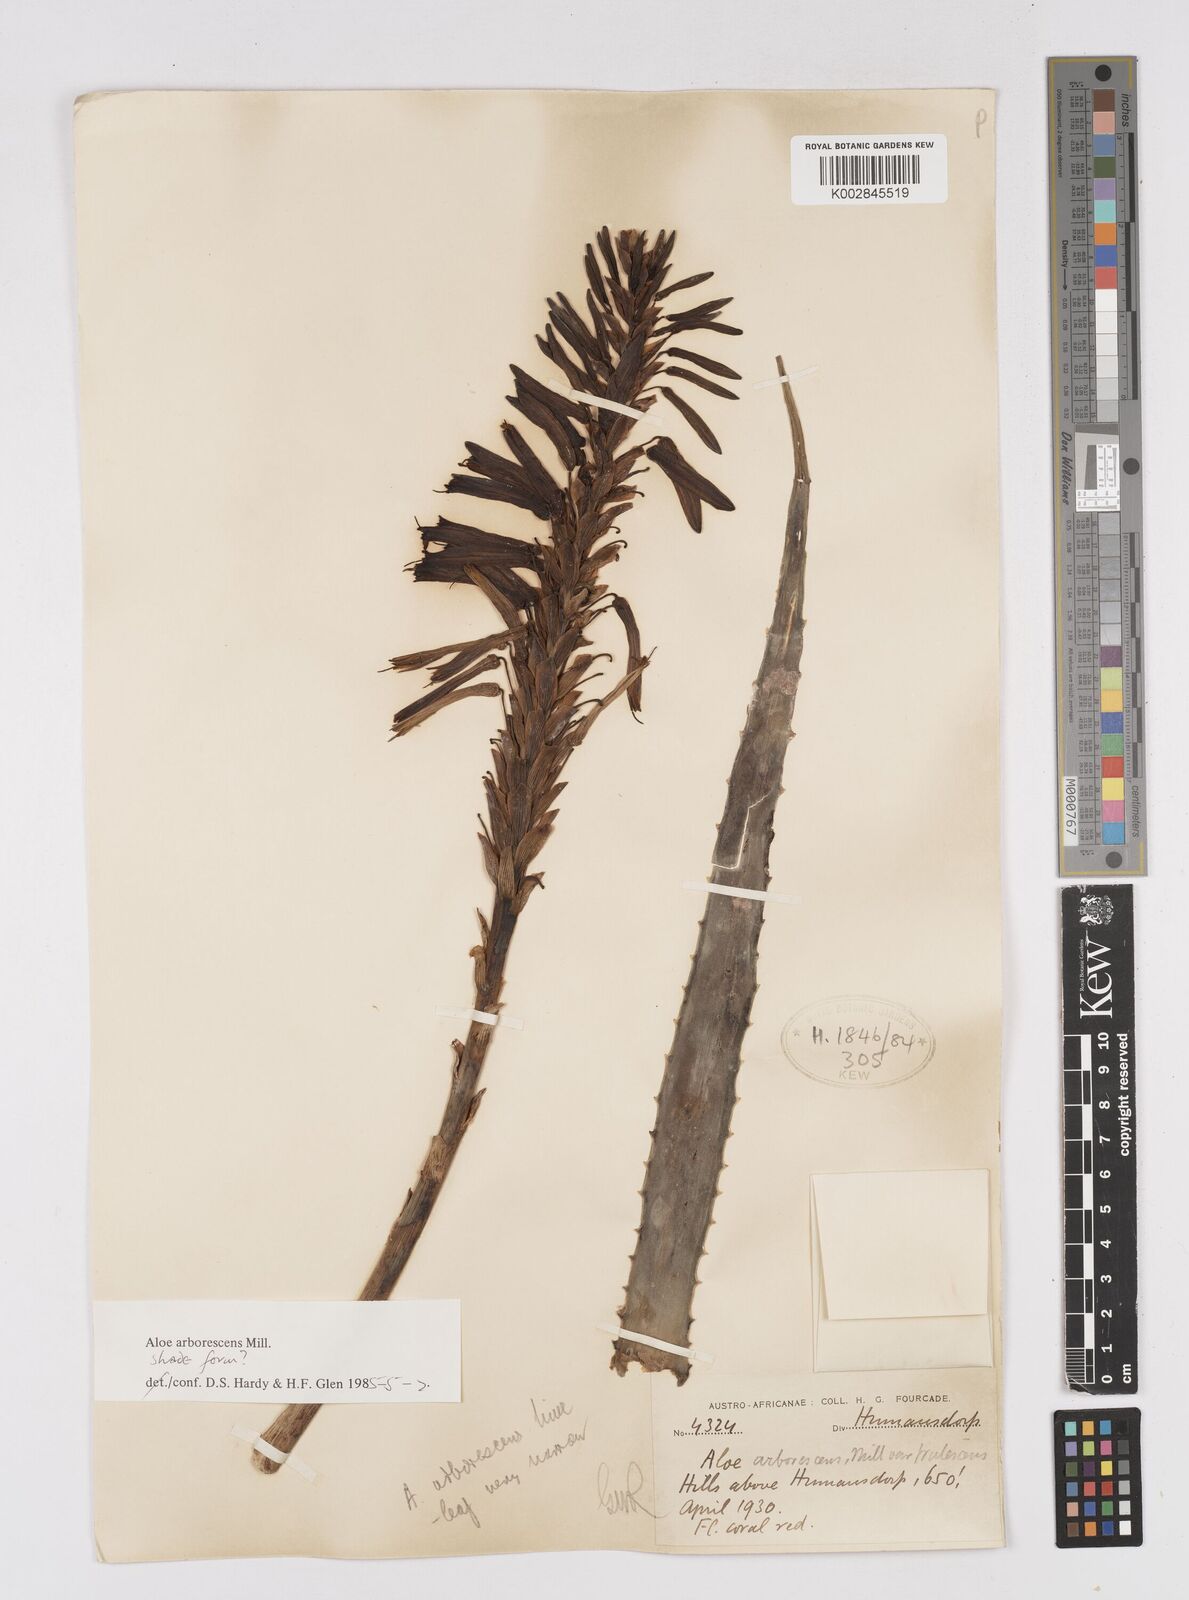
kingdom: Plantae
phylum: Tracheophyta
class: Liliopsida
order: Asparagales
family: Asphodelaceae
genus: Aloe
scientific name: Aloe arborescens
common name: Candelabra aloe
